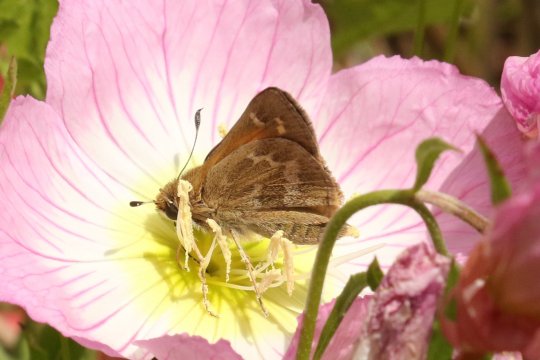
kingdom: Animalia
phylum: Arthropoda
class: Insecta
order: Lepidoptera
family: Hesperiidae
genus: Atalopedes
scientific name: Atalopedes campestris
